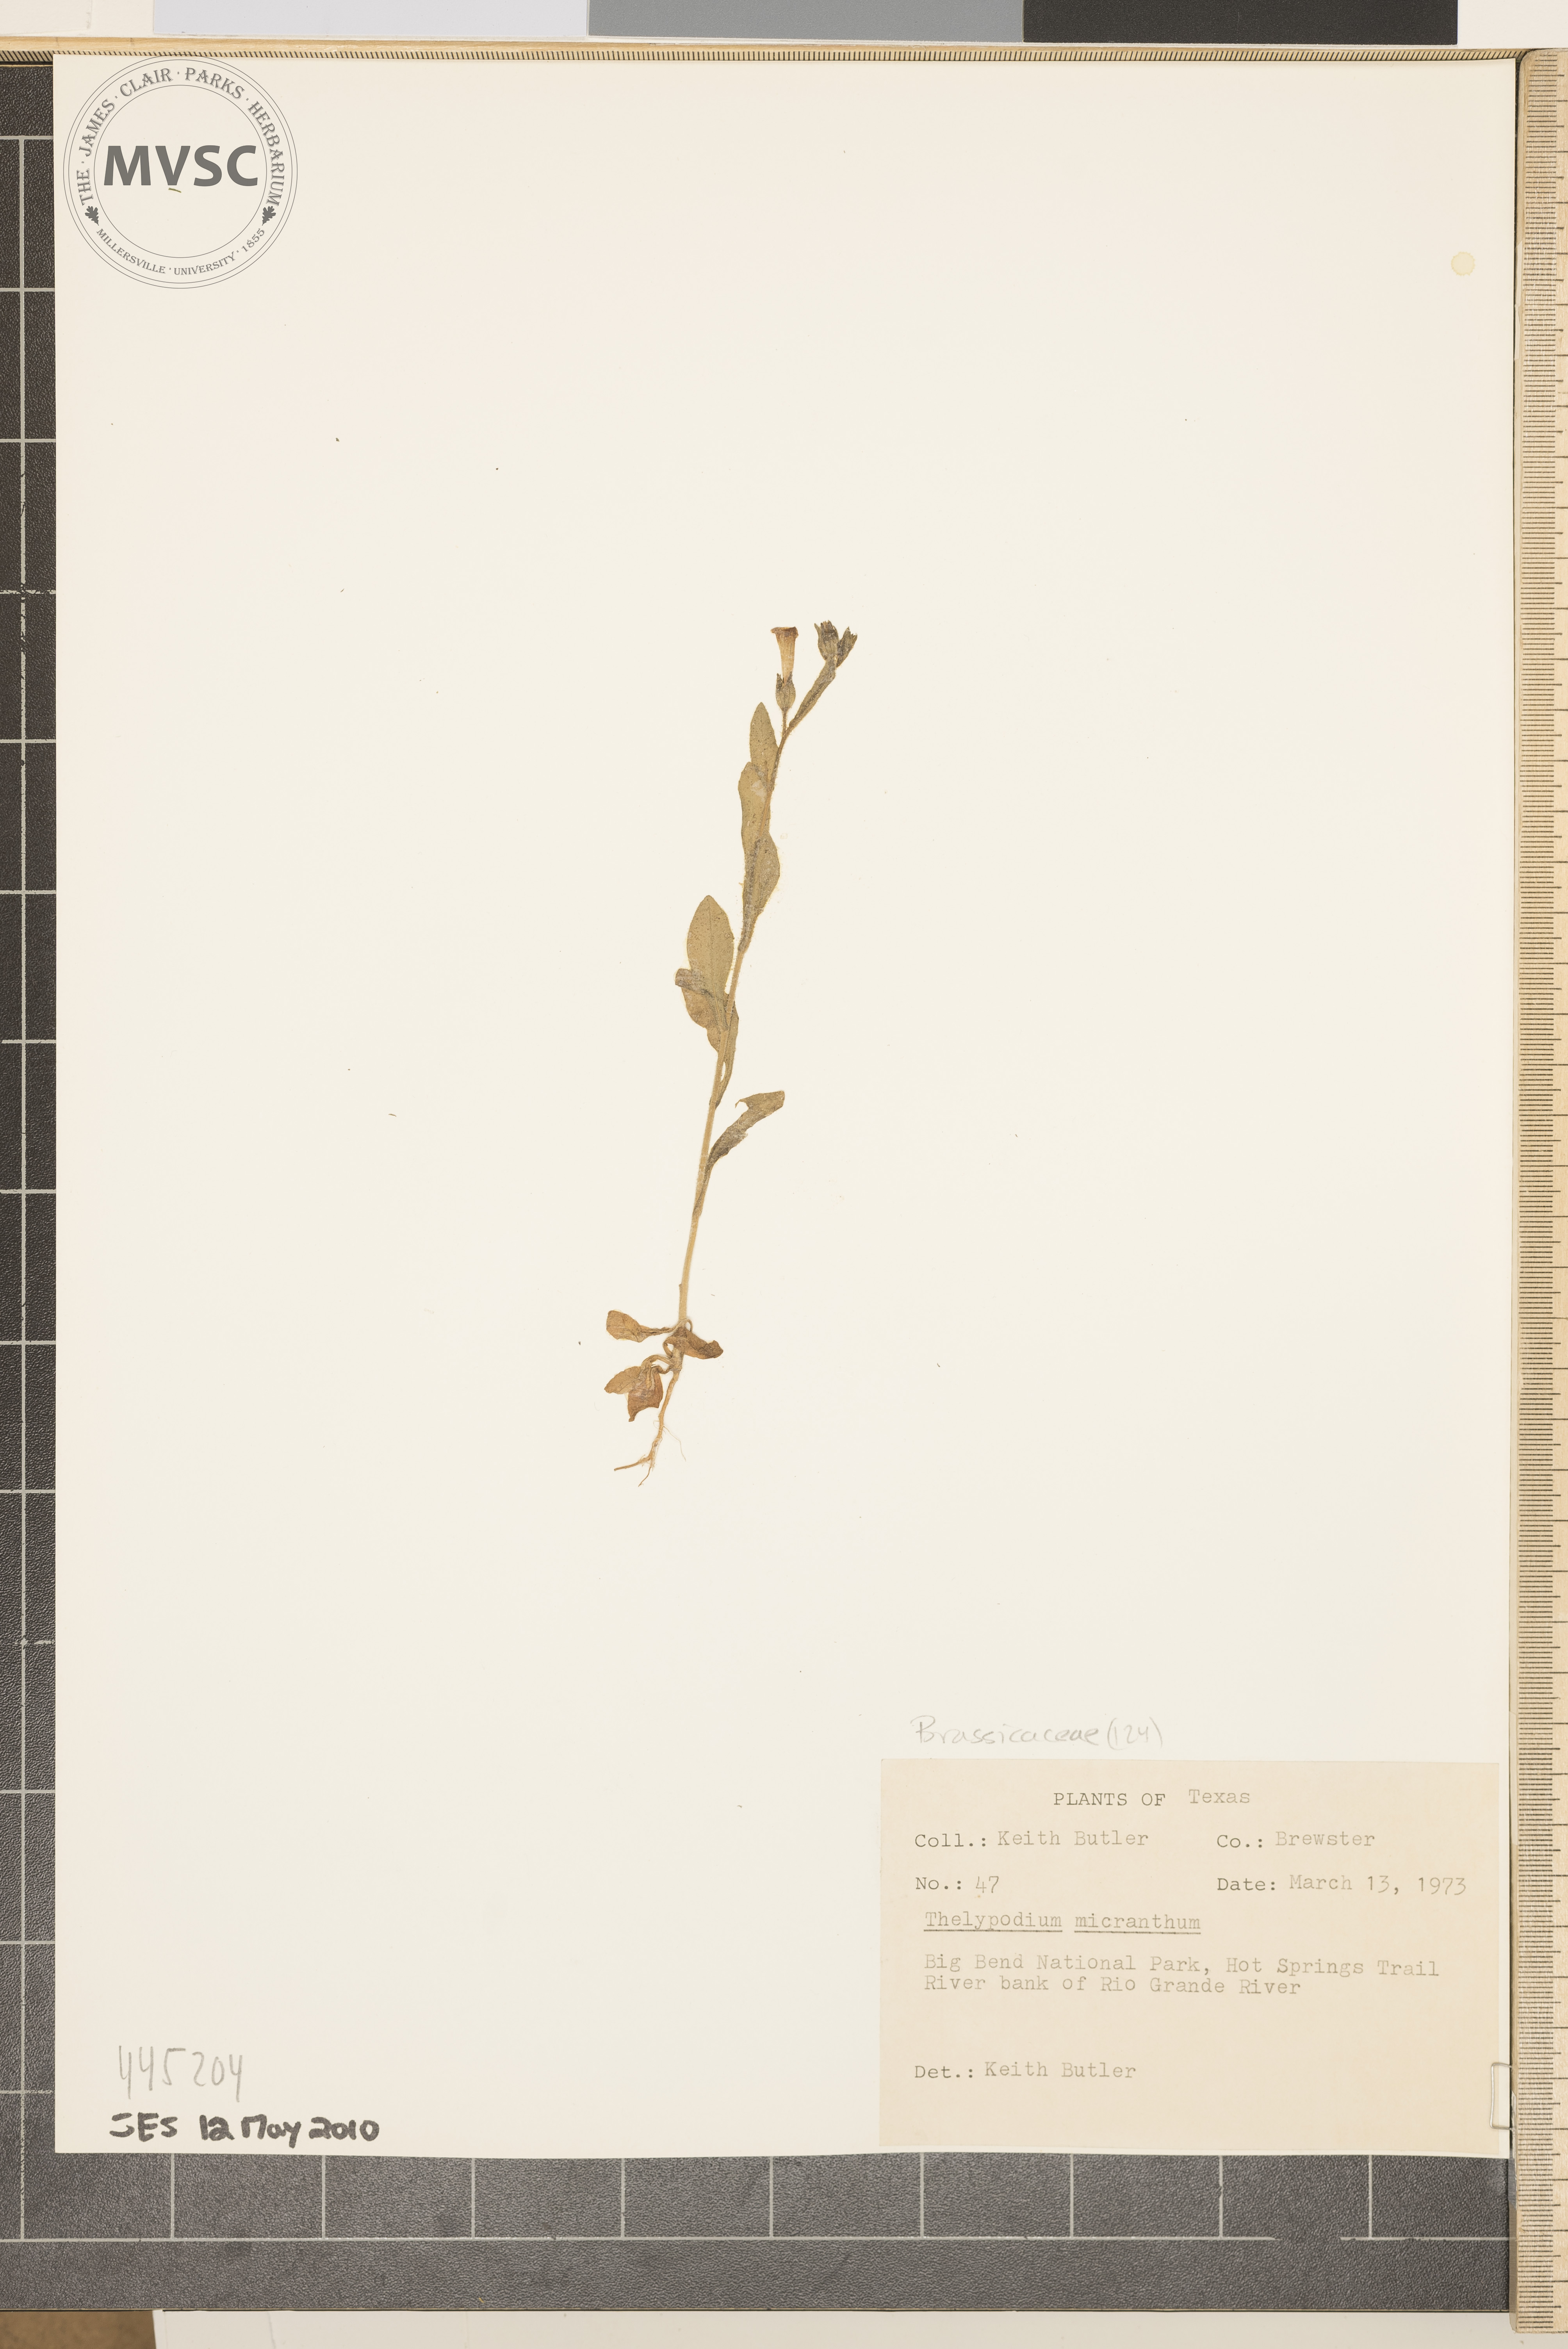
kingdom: Plantae
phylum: Tracheophyta
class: Magnoliopsida
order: Brassicales
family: Brassicaceae
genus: Pennellia
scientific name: Pennellia micrantha
